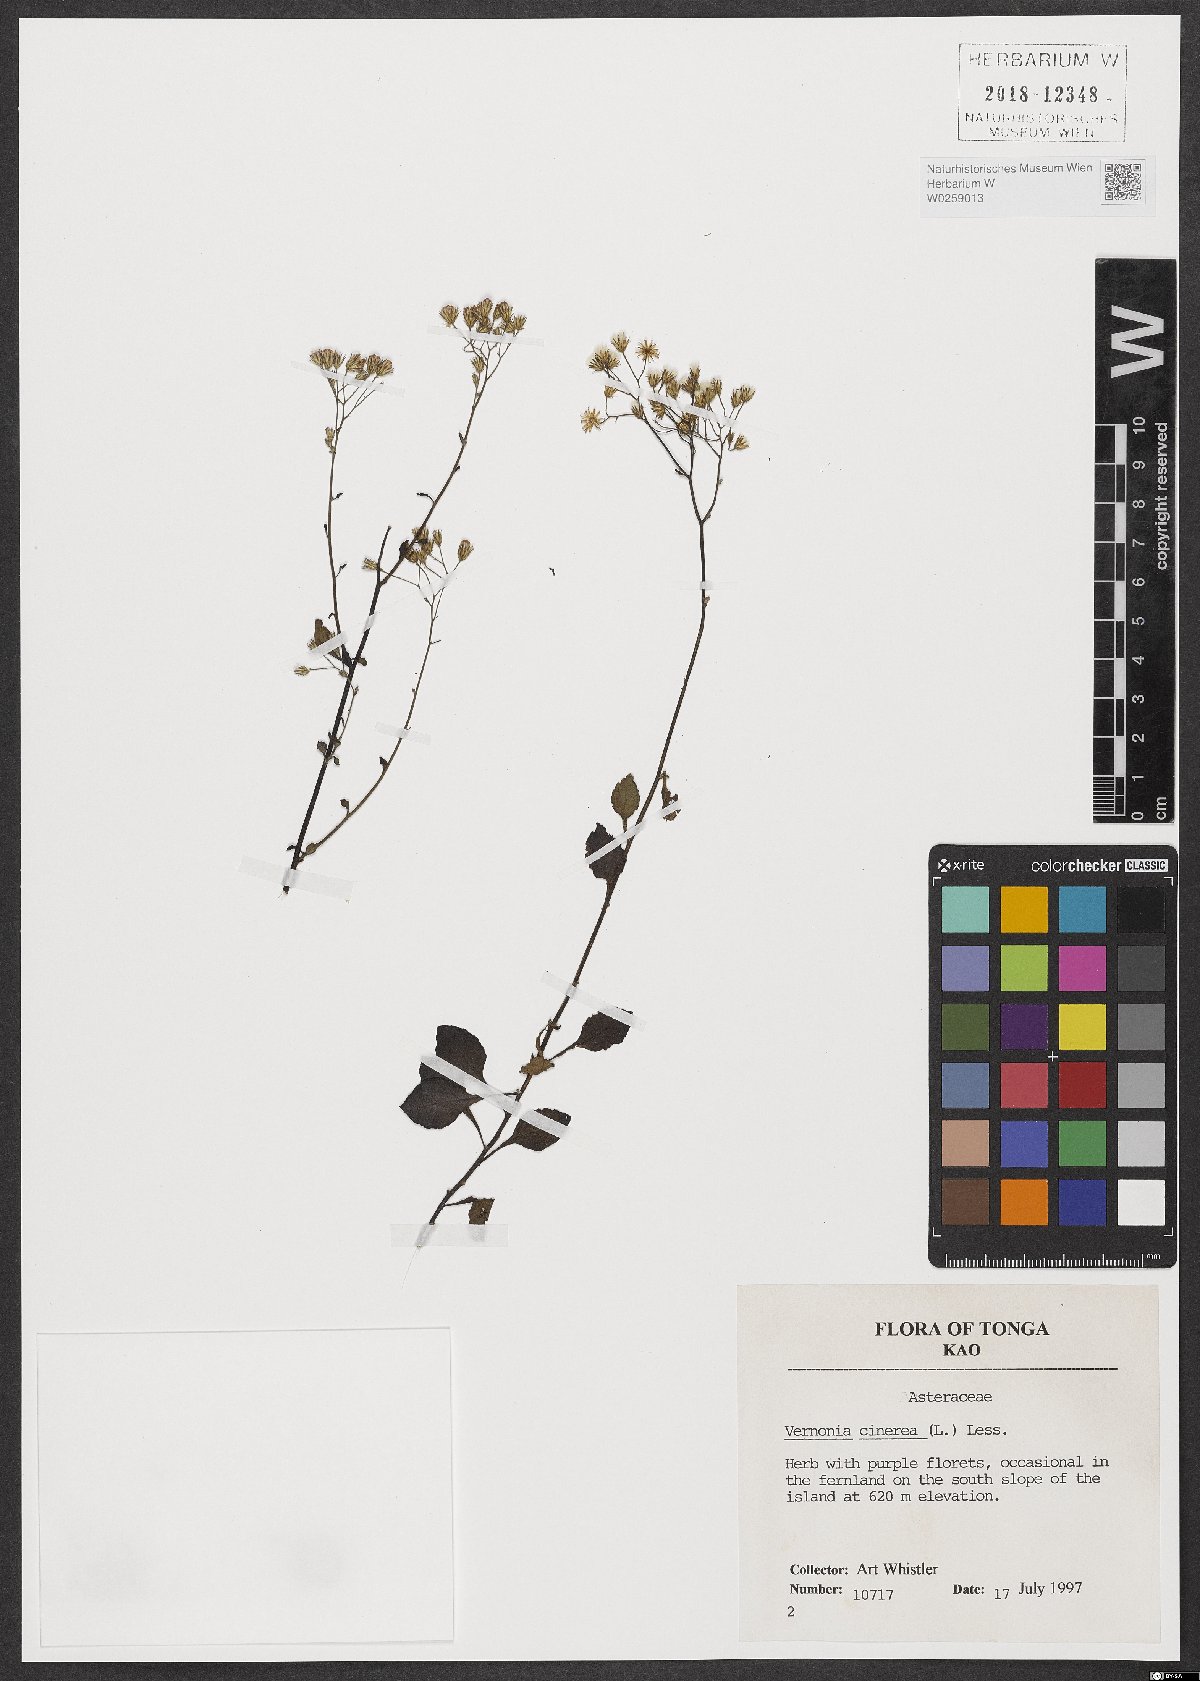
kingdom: Plantae
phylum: Tracheophyta
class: Magnoliopsida
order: Asterales
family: Asteraceae
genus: Cyanthillium
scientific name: Cyanthillium cinereum
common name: Little ironweed
